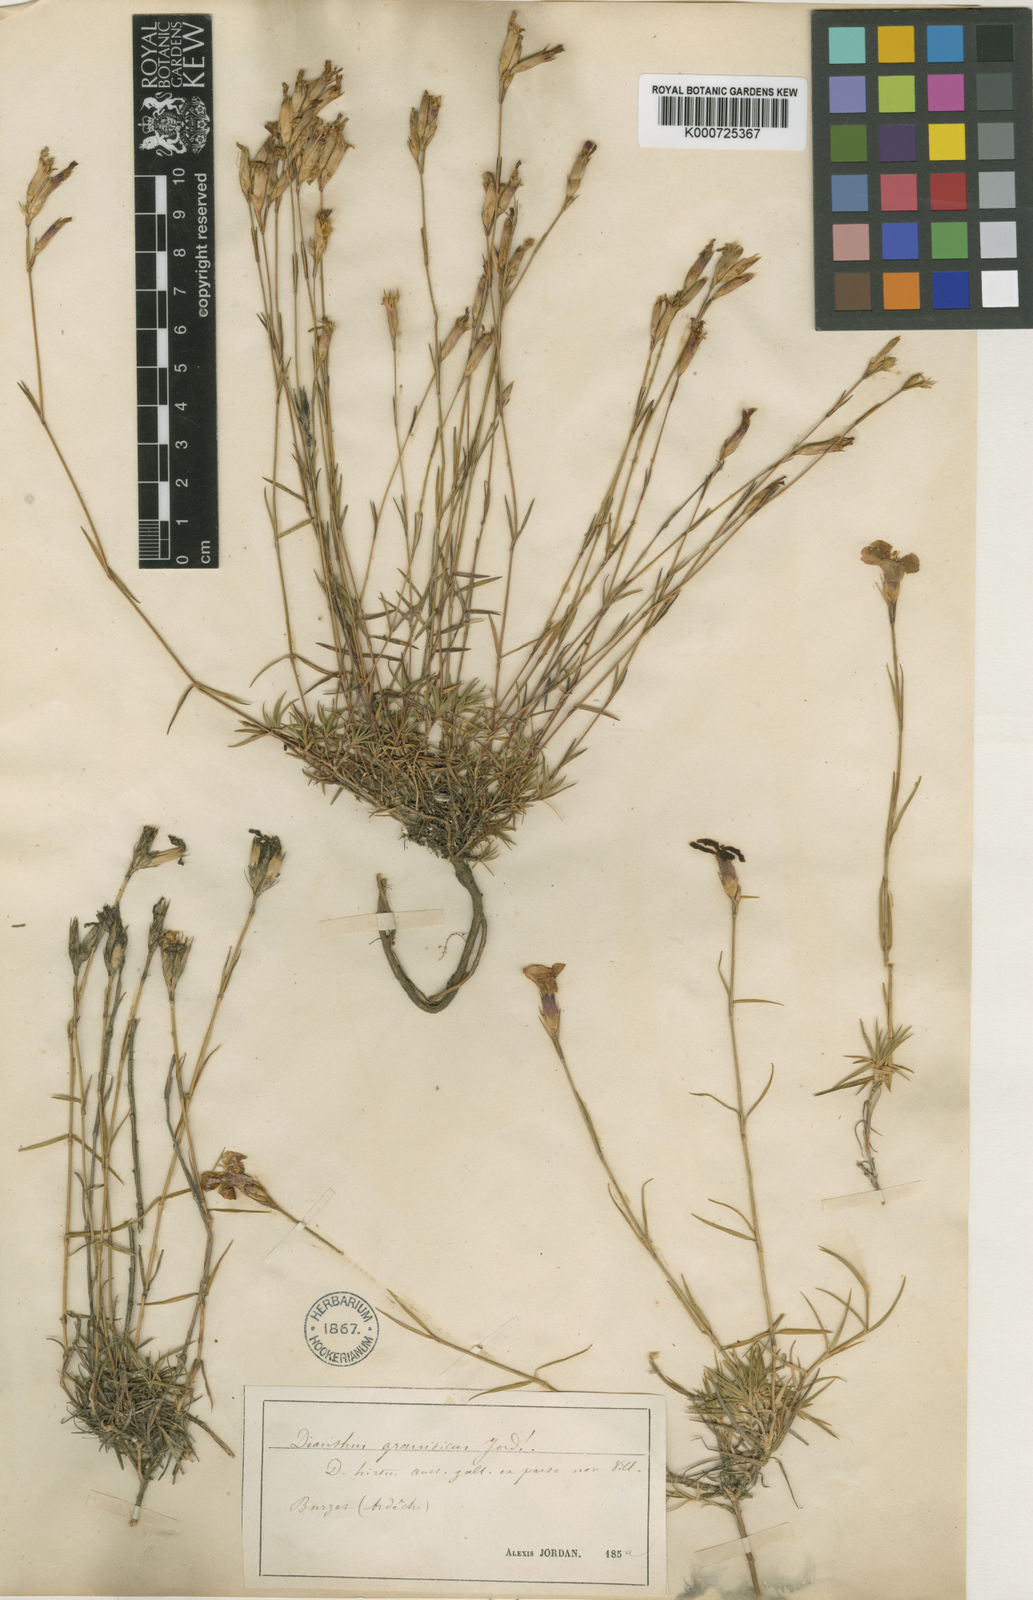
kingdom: Plantae
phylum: Tracheophyta
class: Magnoliopsida
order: Caryophyllales
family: Caryophyllaceae
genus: Dianthus
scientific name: Dianthus graniticus
